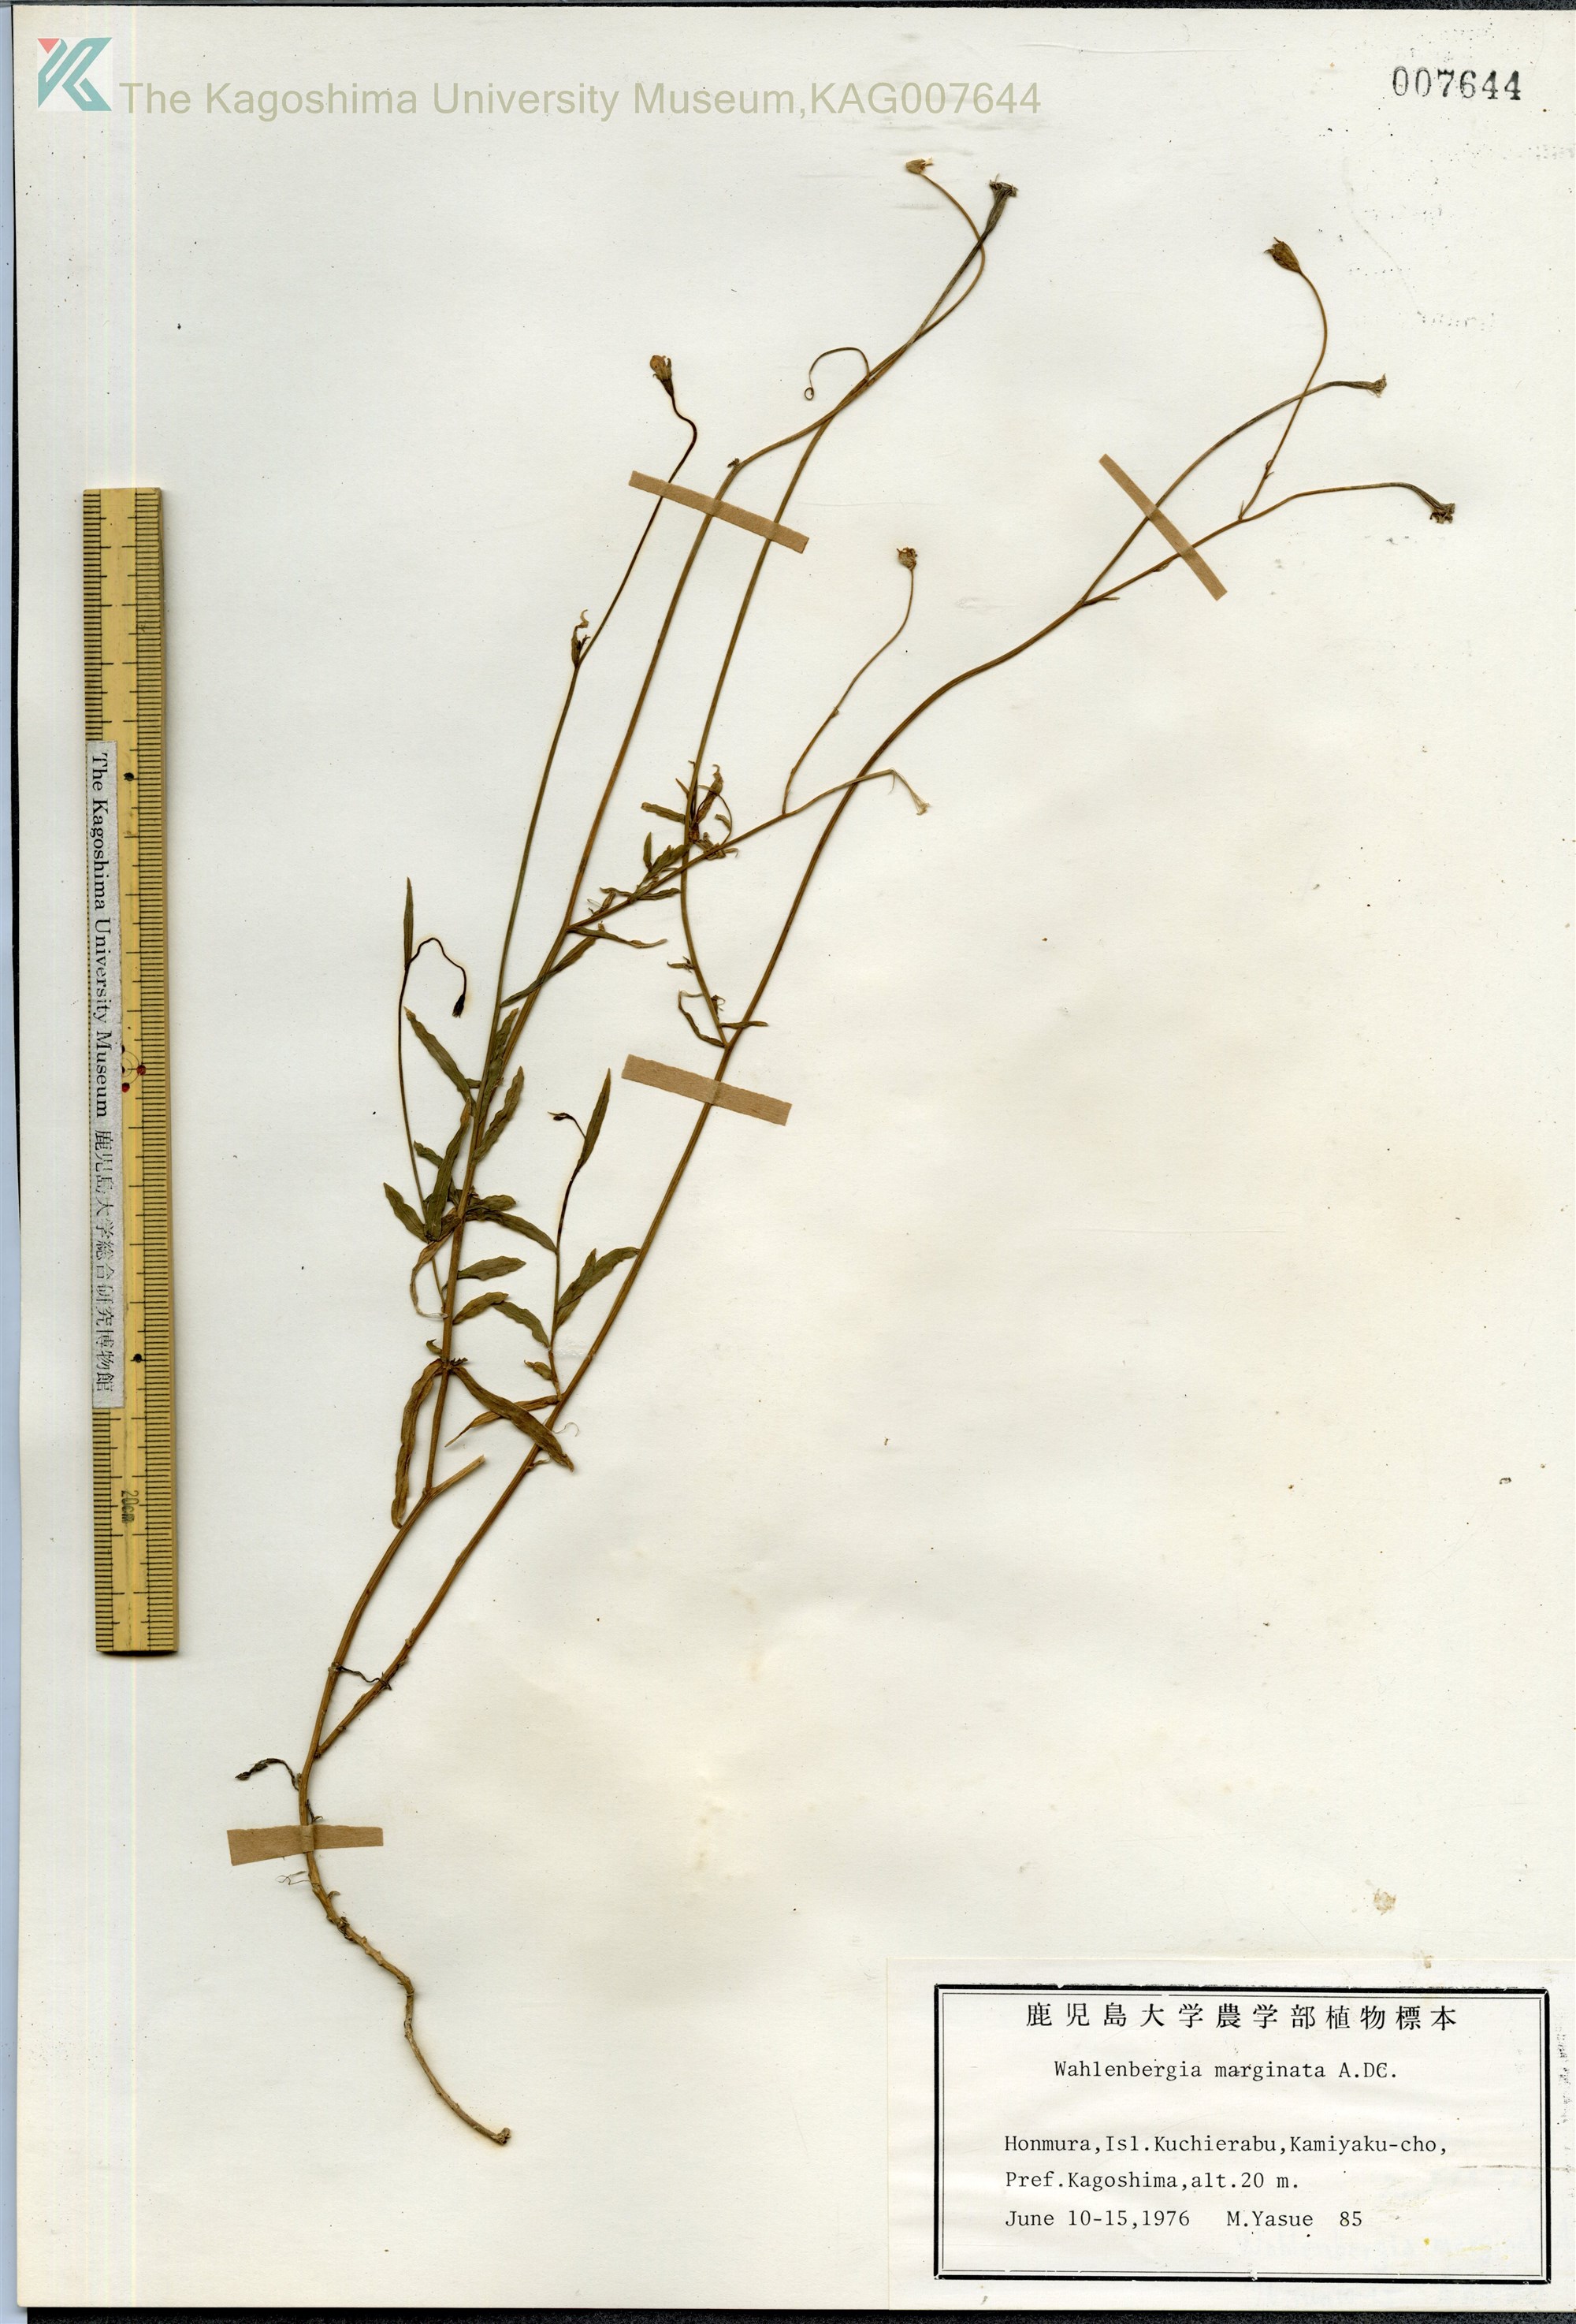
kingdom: Plantae
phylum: Tracheophyta
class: Magnoliopsida
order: Asterales
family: Campanulaceae
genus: Wahlenbergia
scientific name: Wahlenbergia marginata
